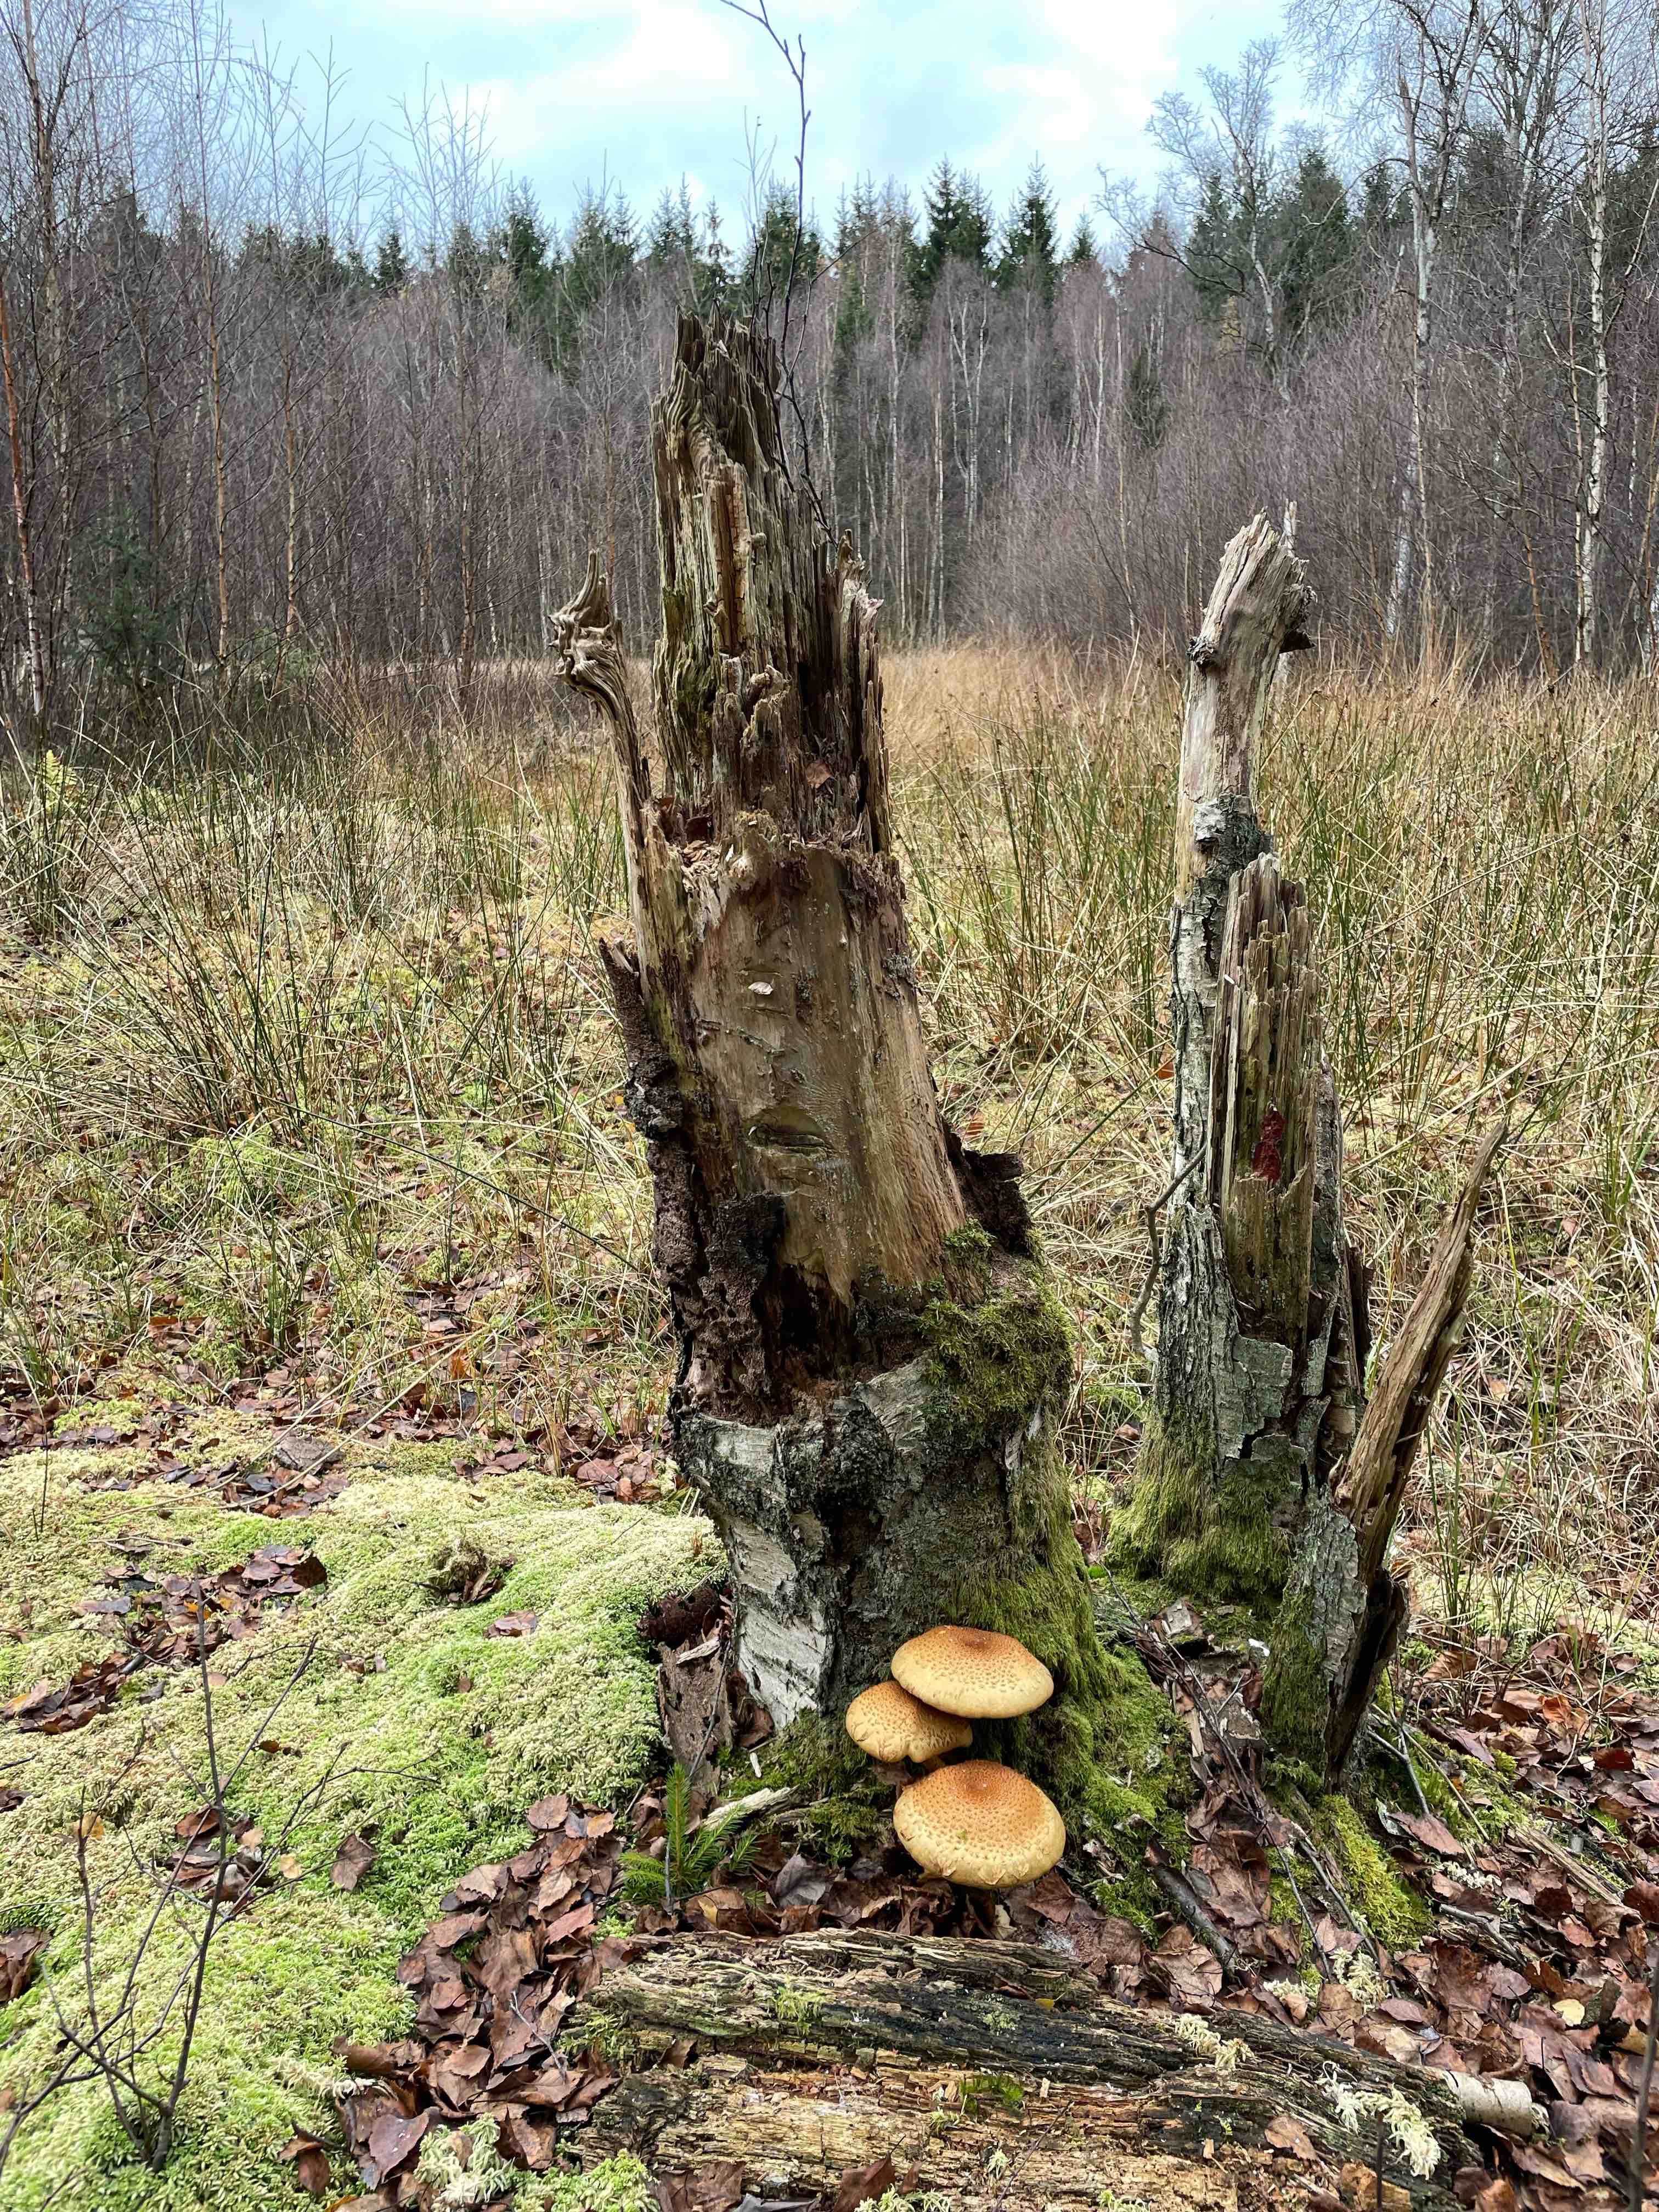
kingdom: Fungi
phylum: Basidiomycota
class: Agaricomycetes
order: Agaricales
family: Strophariaceae
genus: Pholiota
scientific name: Pholiota squarrosa
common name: krumskællet skælhat
